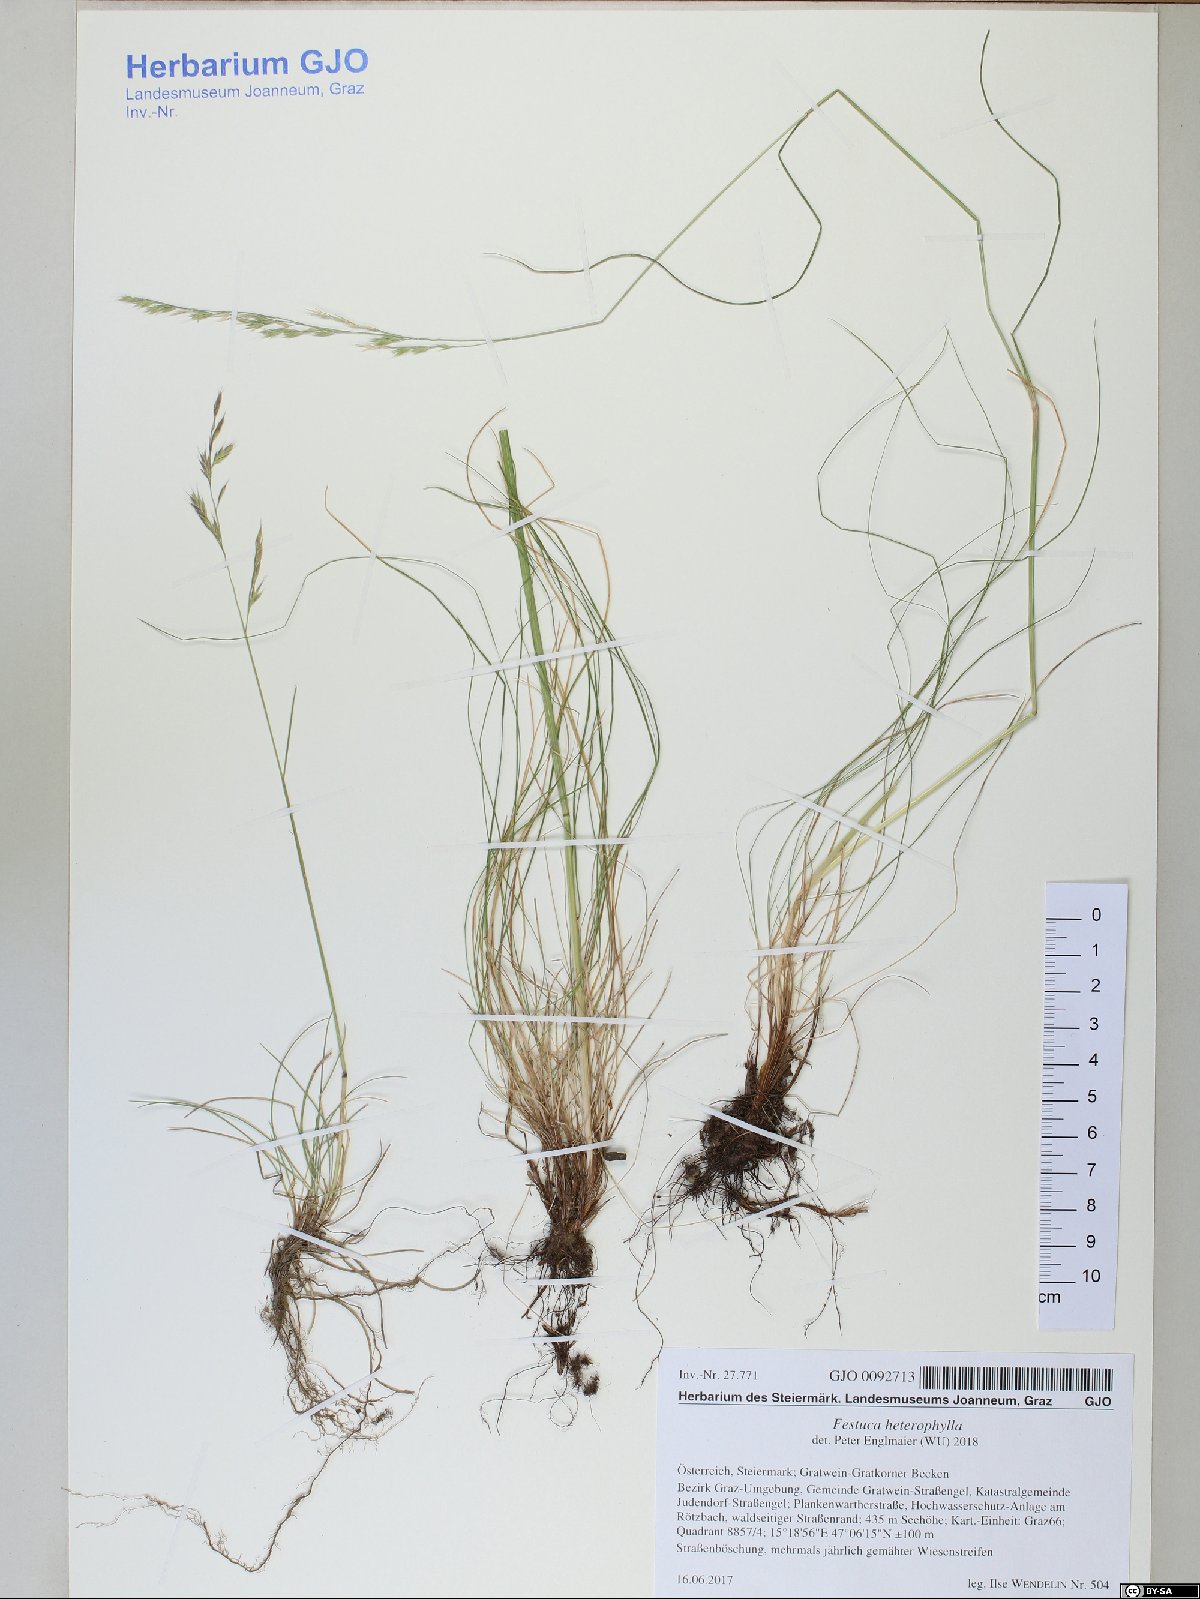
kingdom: Plantae
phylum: Tracheophyta
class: Liliopsida
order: Poales
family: Poaceae
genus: Festuca
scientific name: Festuca heterophylla
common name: Various-leaved fescue
